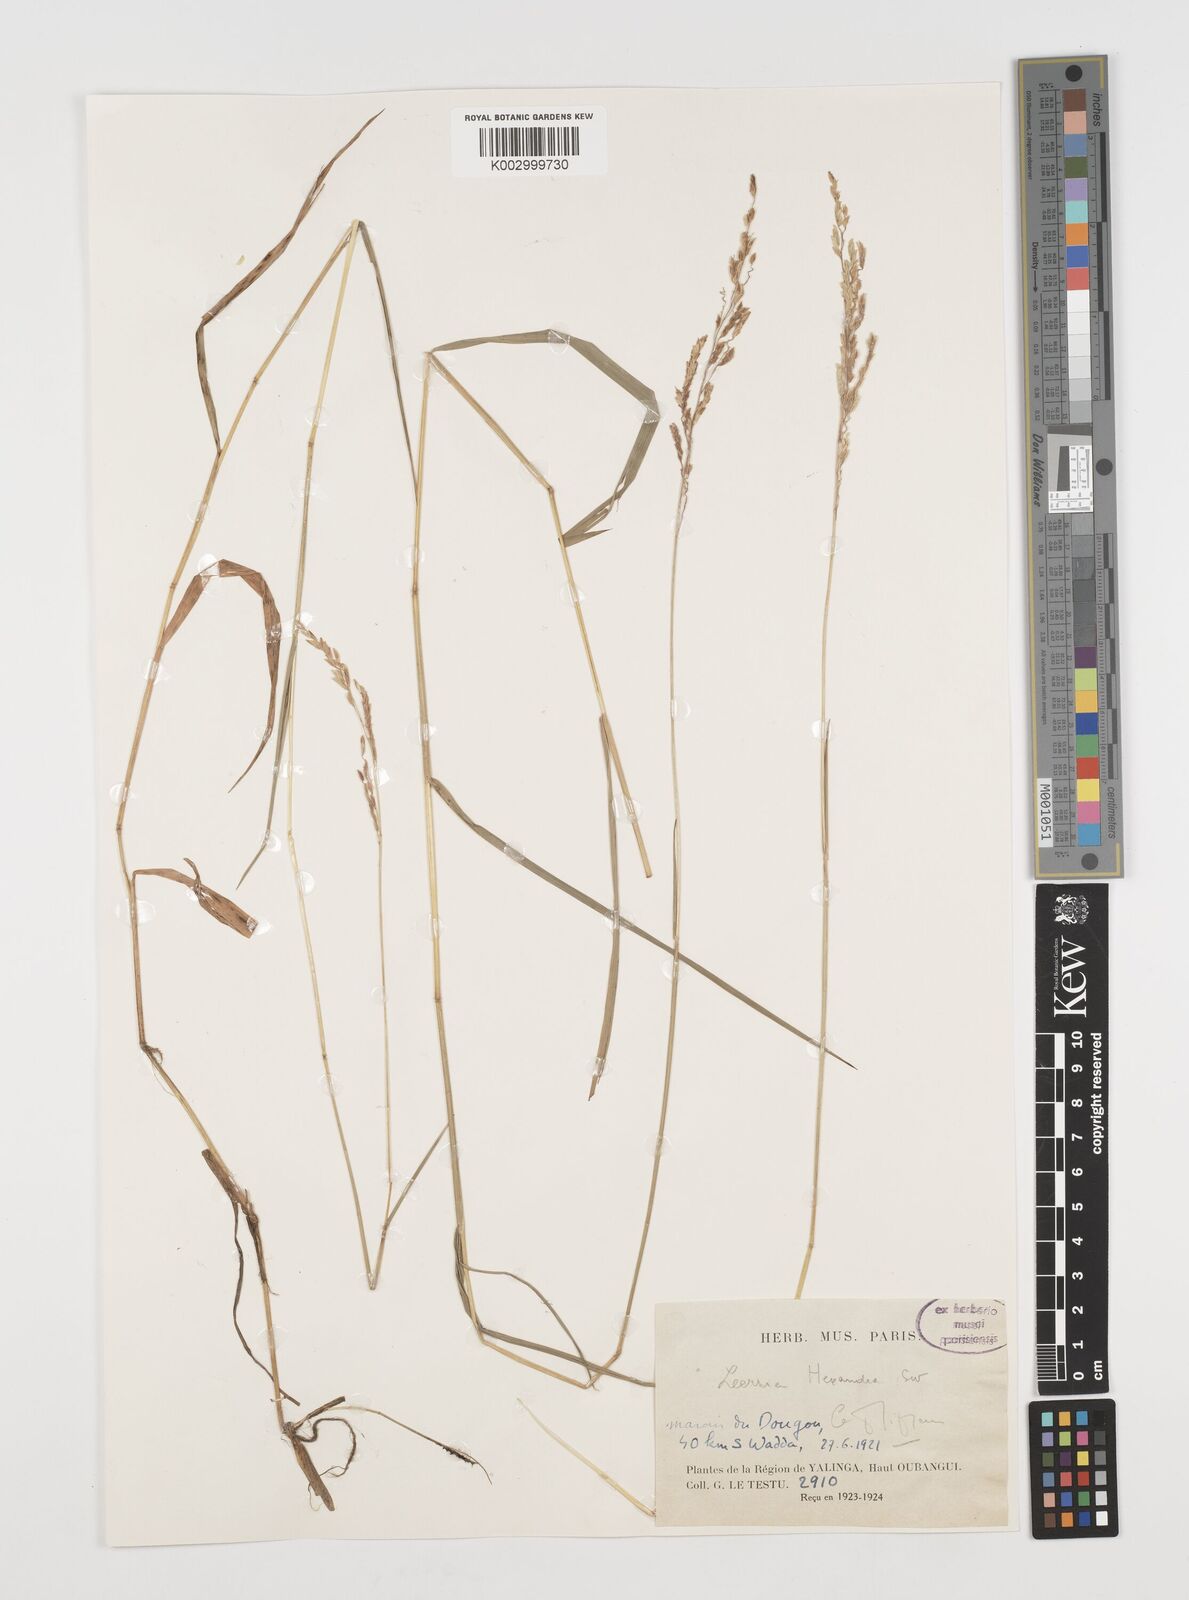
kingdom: Plantae
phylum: Tracheophyta
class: Liliopsida
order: Poales
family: Poaceae
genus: Leersia
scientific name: Leersia hexandra
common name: Southern cut grass
